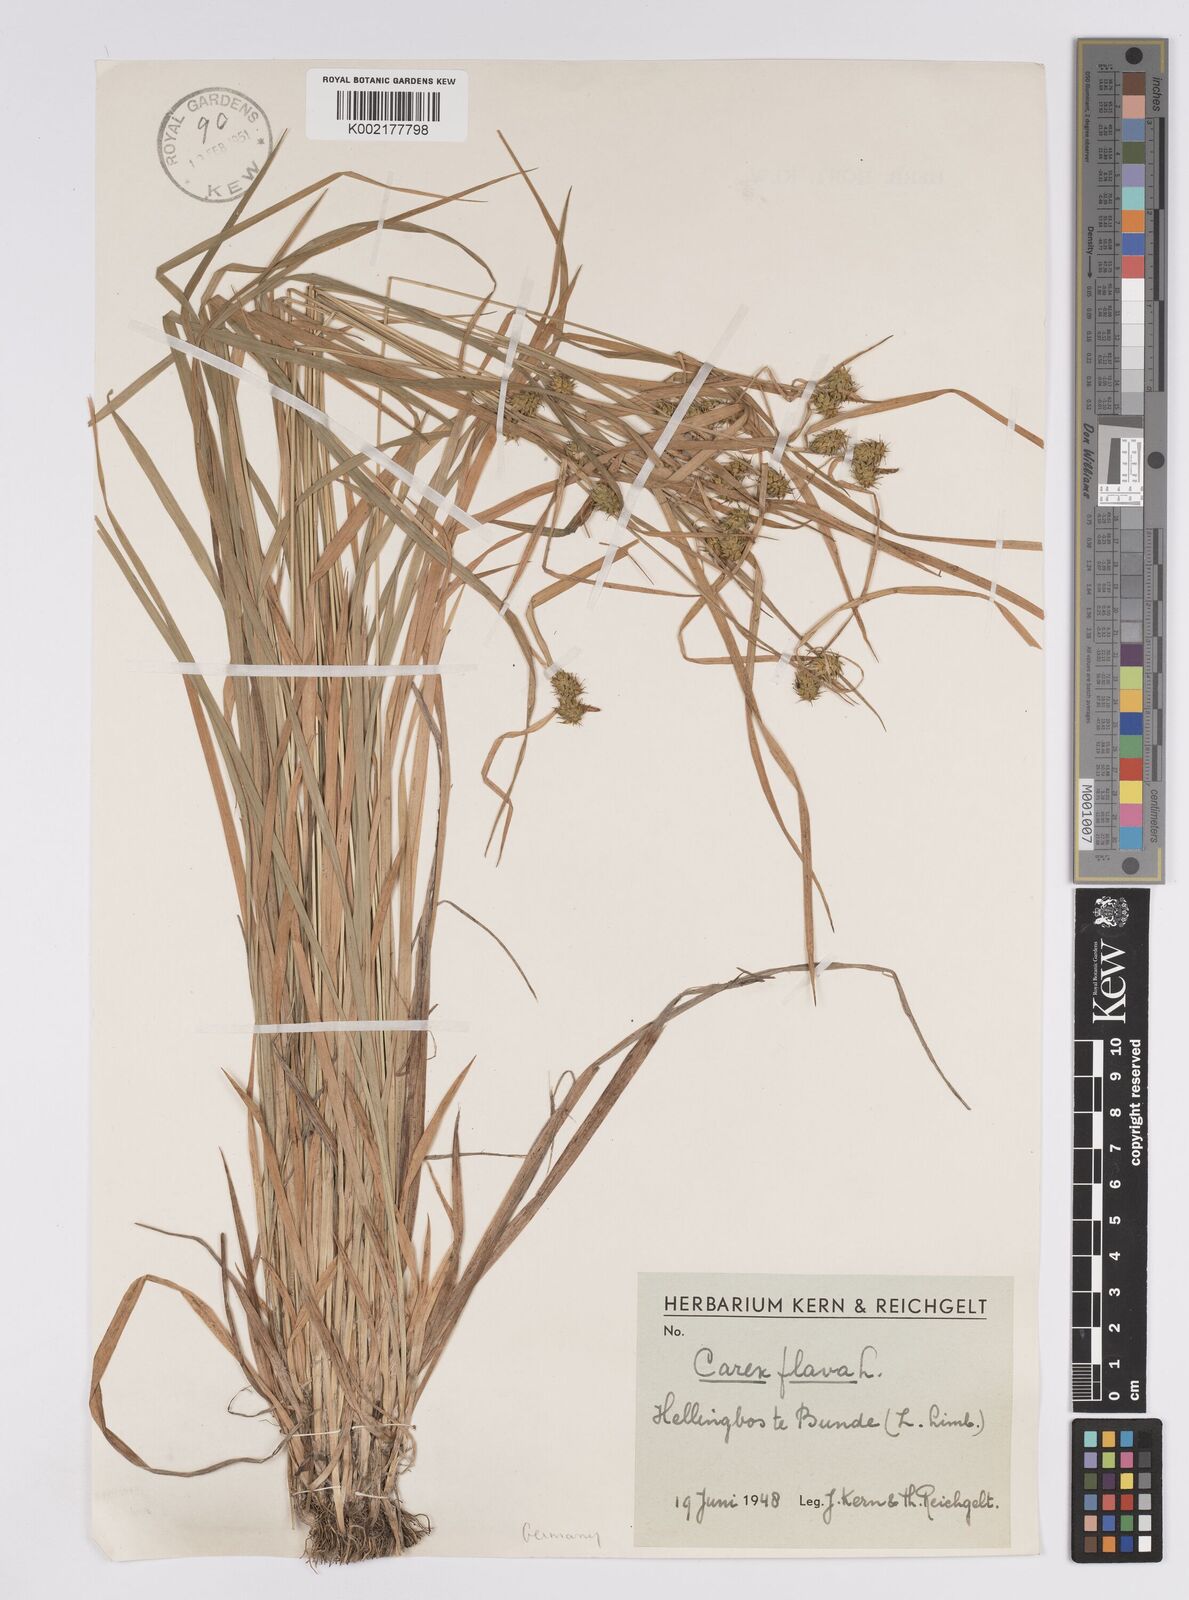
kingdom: Plantae
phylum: Tracheophyta
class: Liliopsida
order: Poales
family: Cyperaceae
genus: Carex
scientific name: Carex flava
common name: Large yellow-sedge
